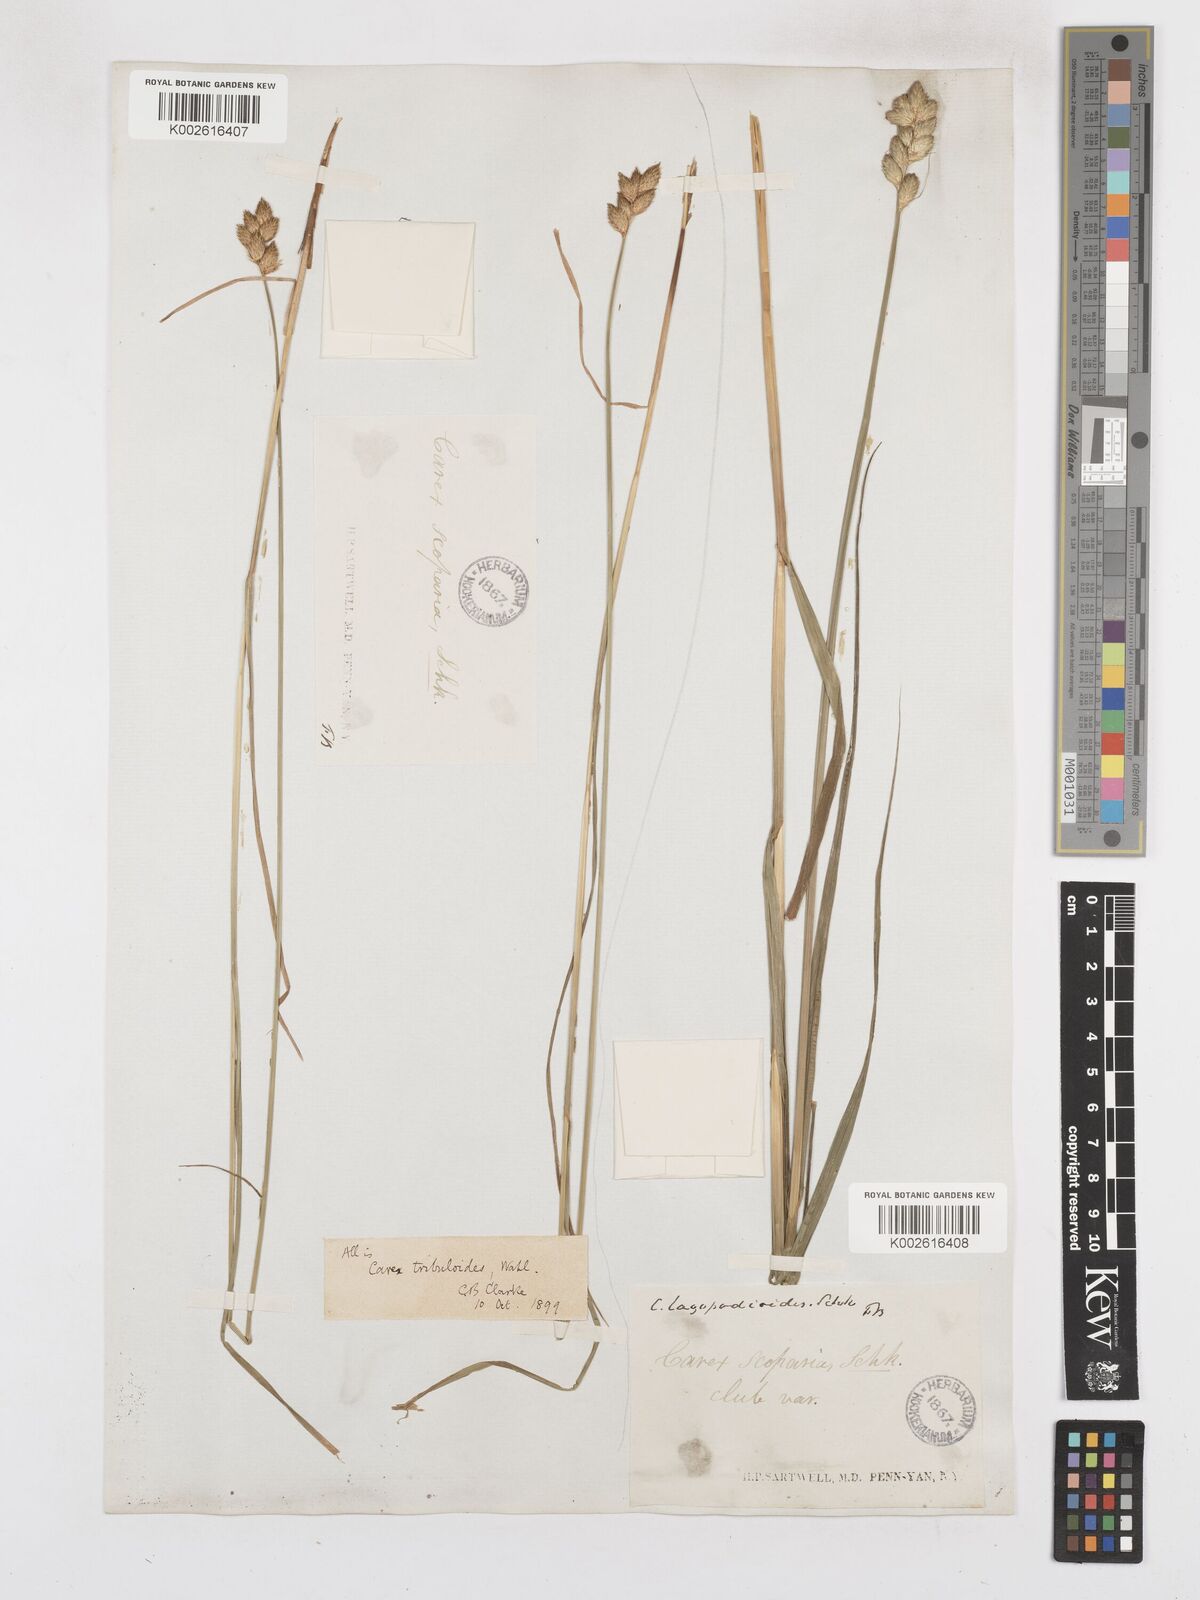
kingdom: Plantae
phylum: Tracheophyta
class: Liliopsida
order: Poales
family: Cyperaceae
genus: Carex
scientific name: Carex tribuloides
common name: Blunt broom sedge
